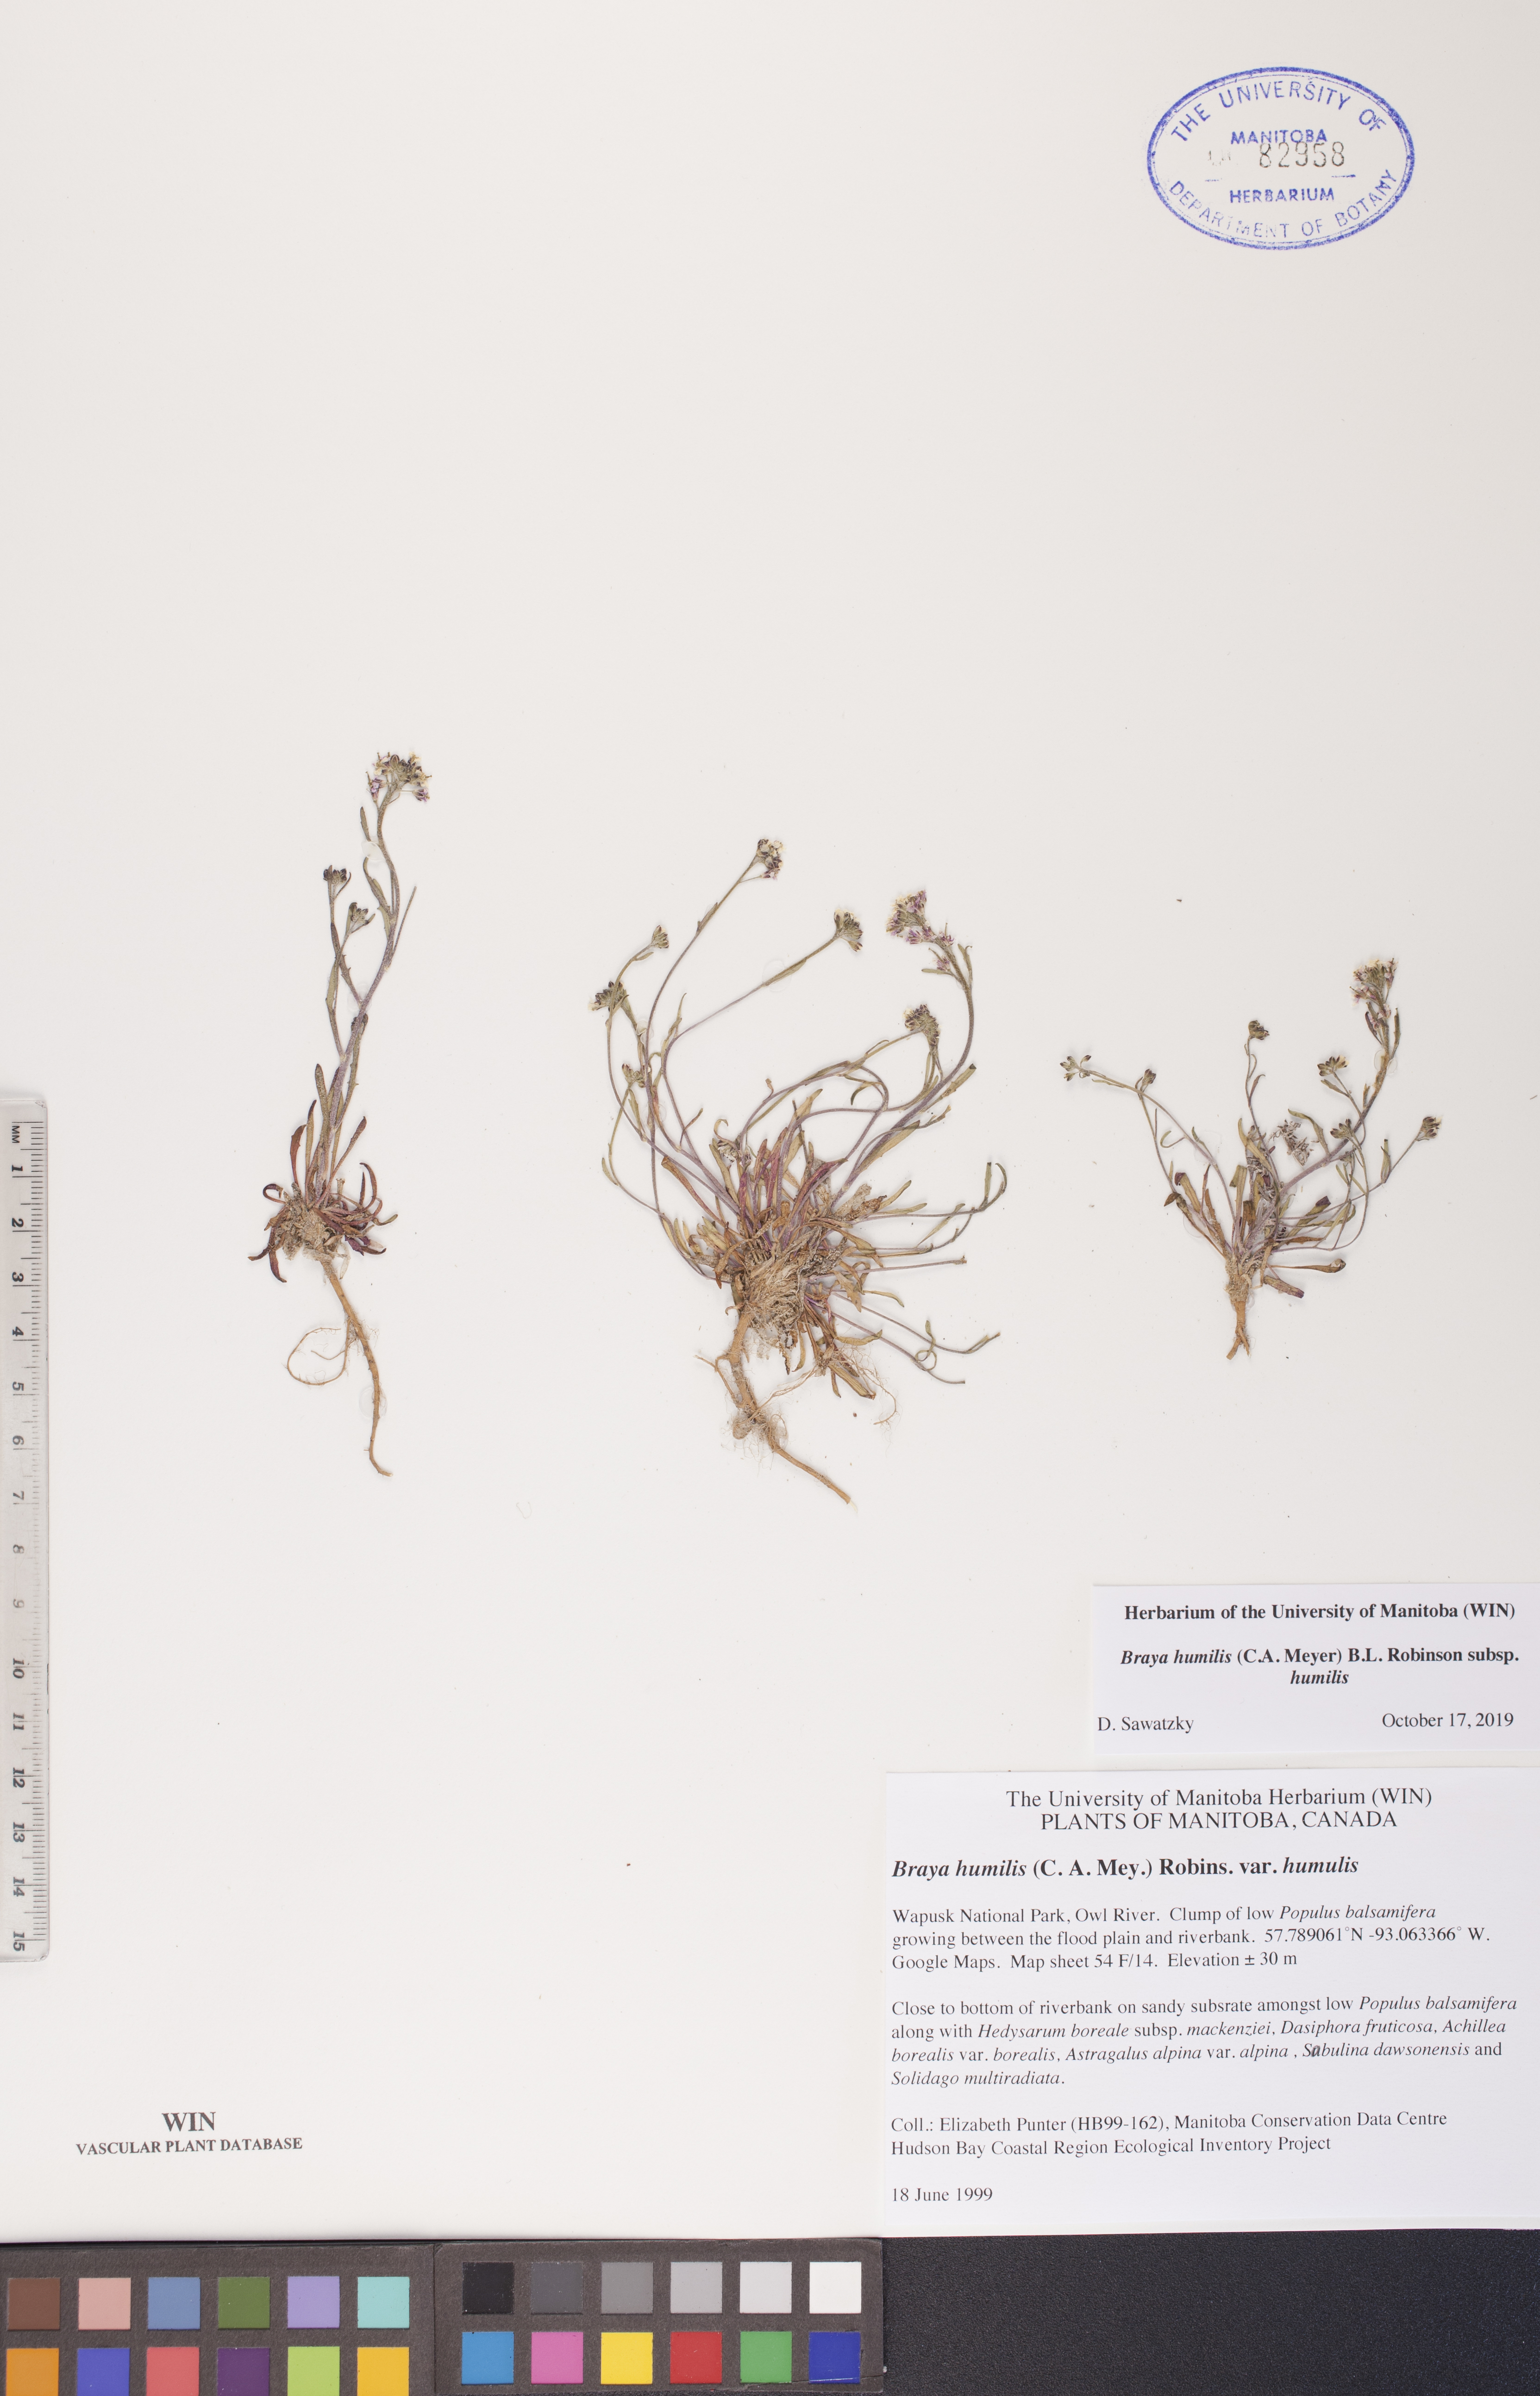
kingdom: Plantae
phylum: Tracheophyta
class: Magnoliopsida
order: Brassicales
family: Brassicaceae
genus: Braya
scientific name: Braya humilis
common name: Alpine northern rockcress
